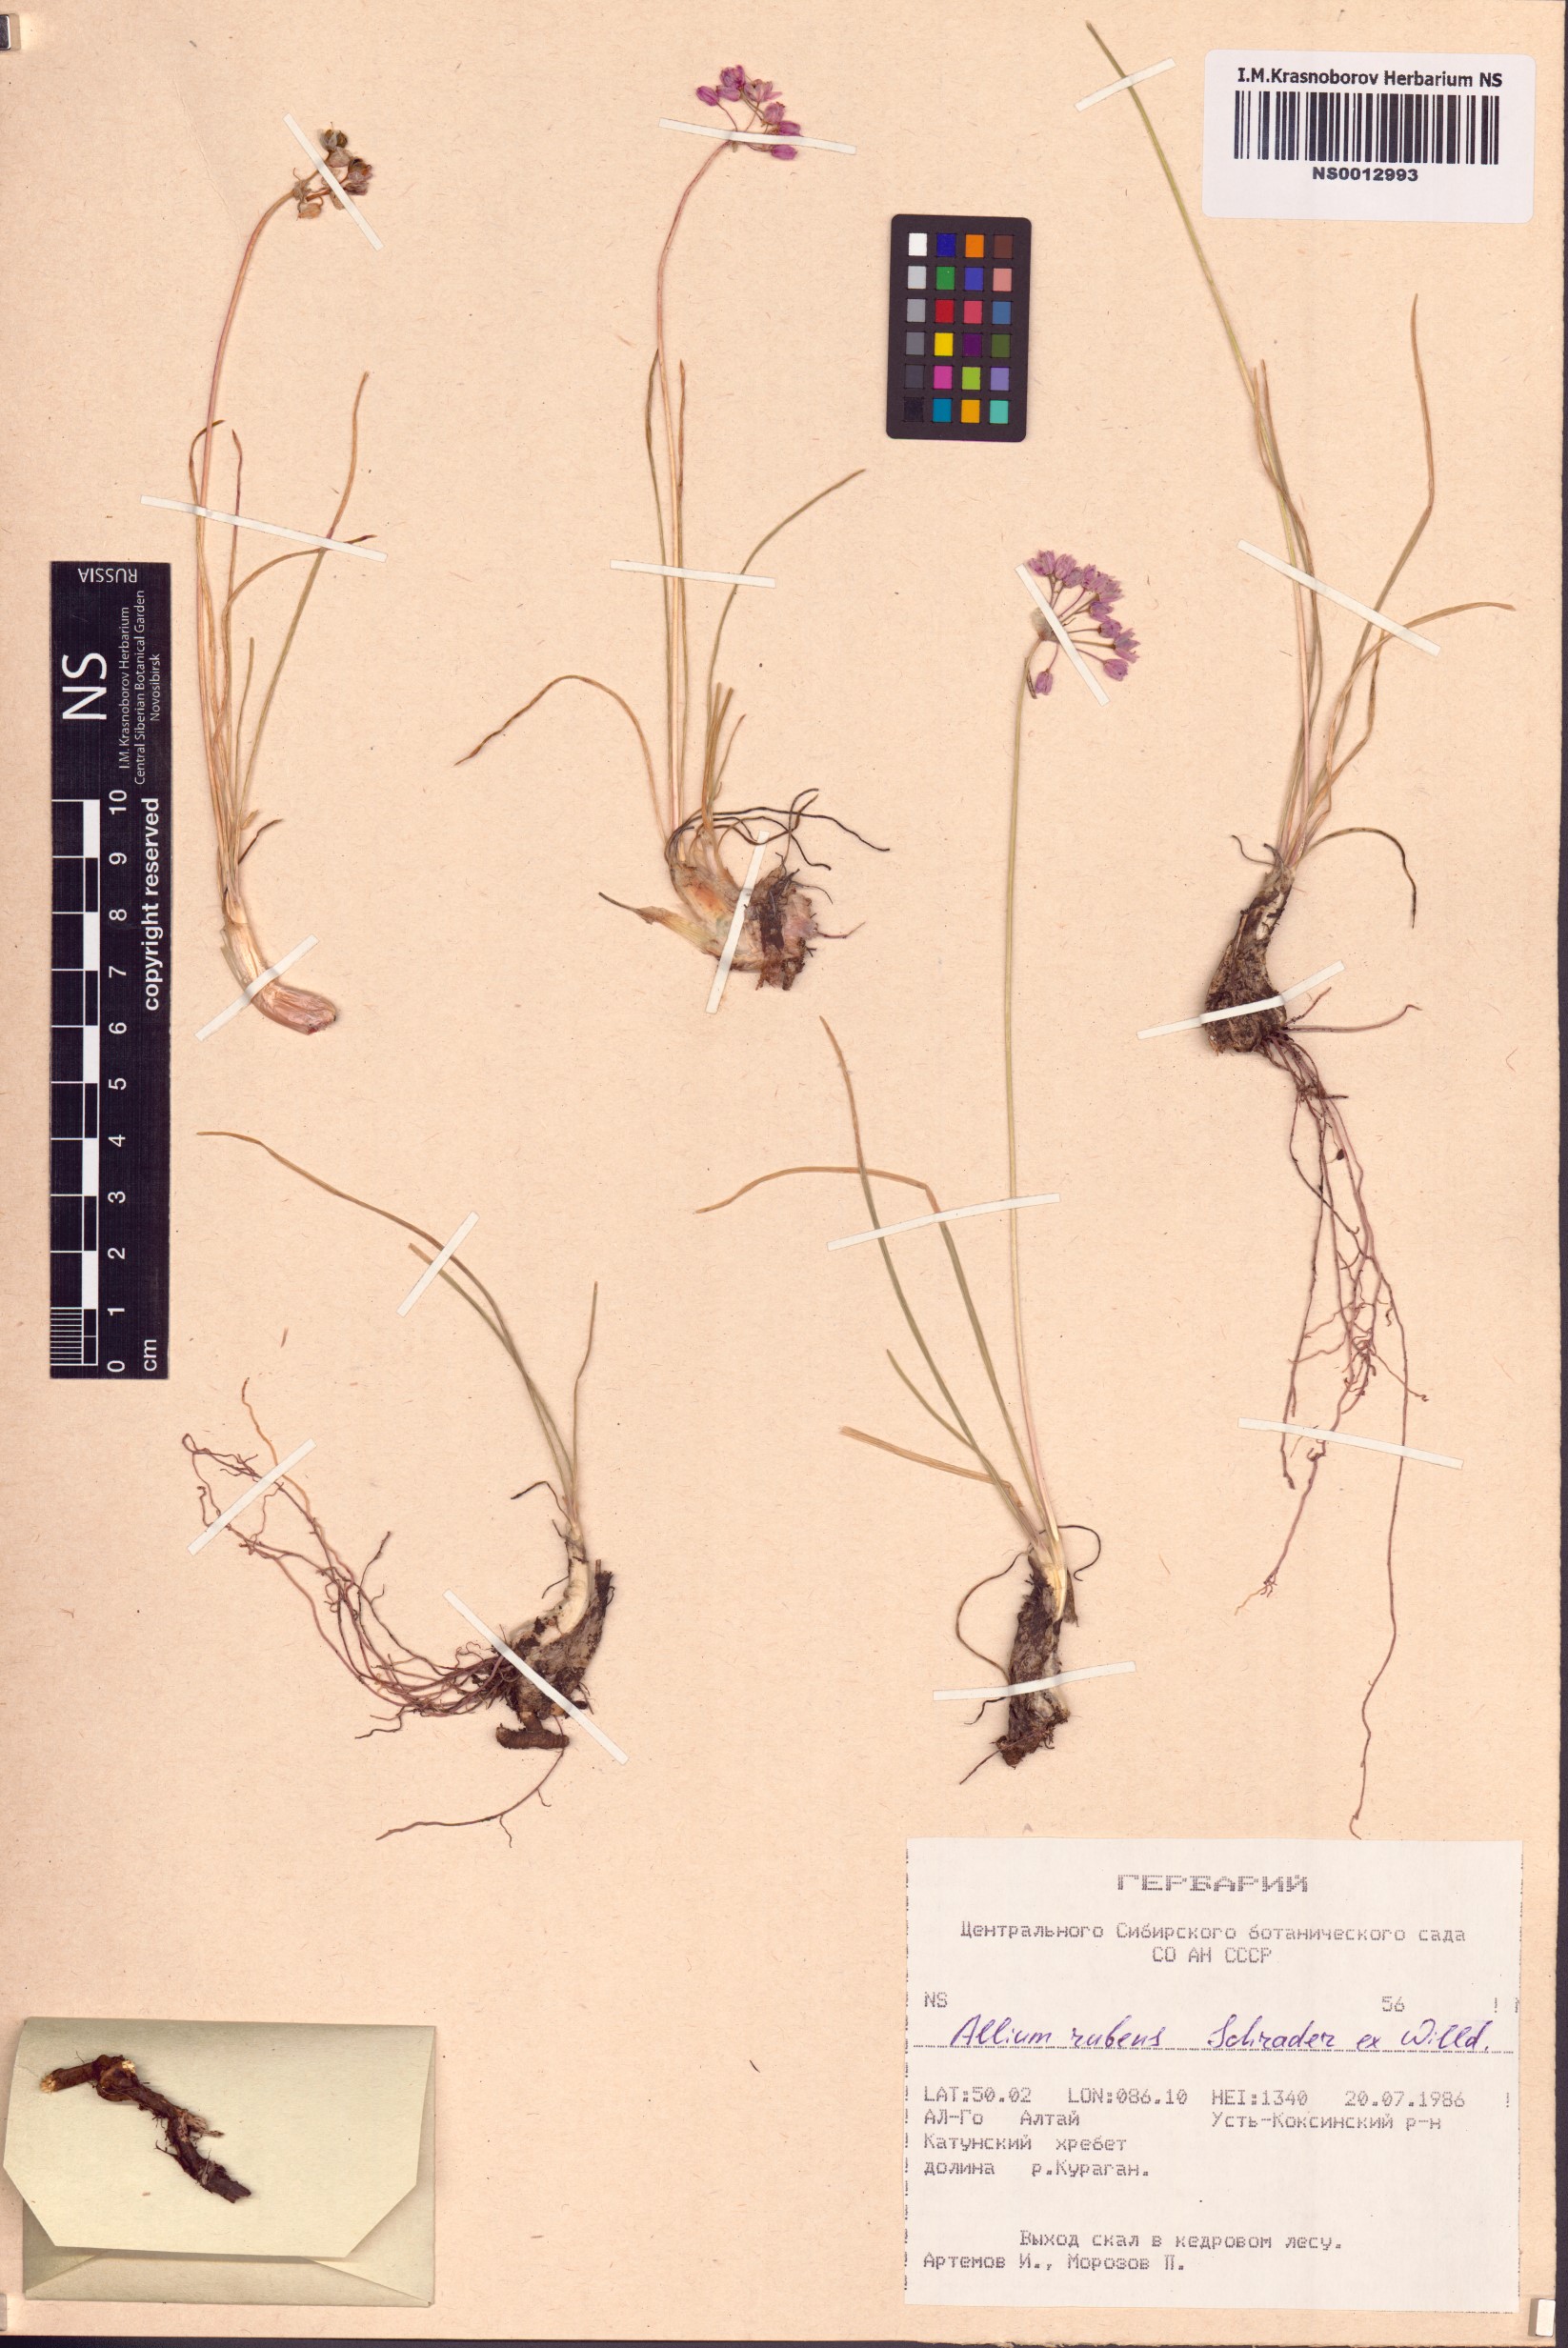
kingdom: Plantae
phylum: Tracheophyta
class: Liliopsida
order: Asparagales
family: Amaryllidaceae
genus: Allium
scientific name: Allium rubens
